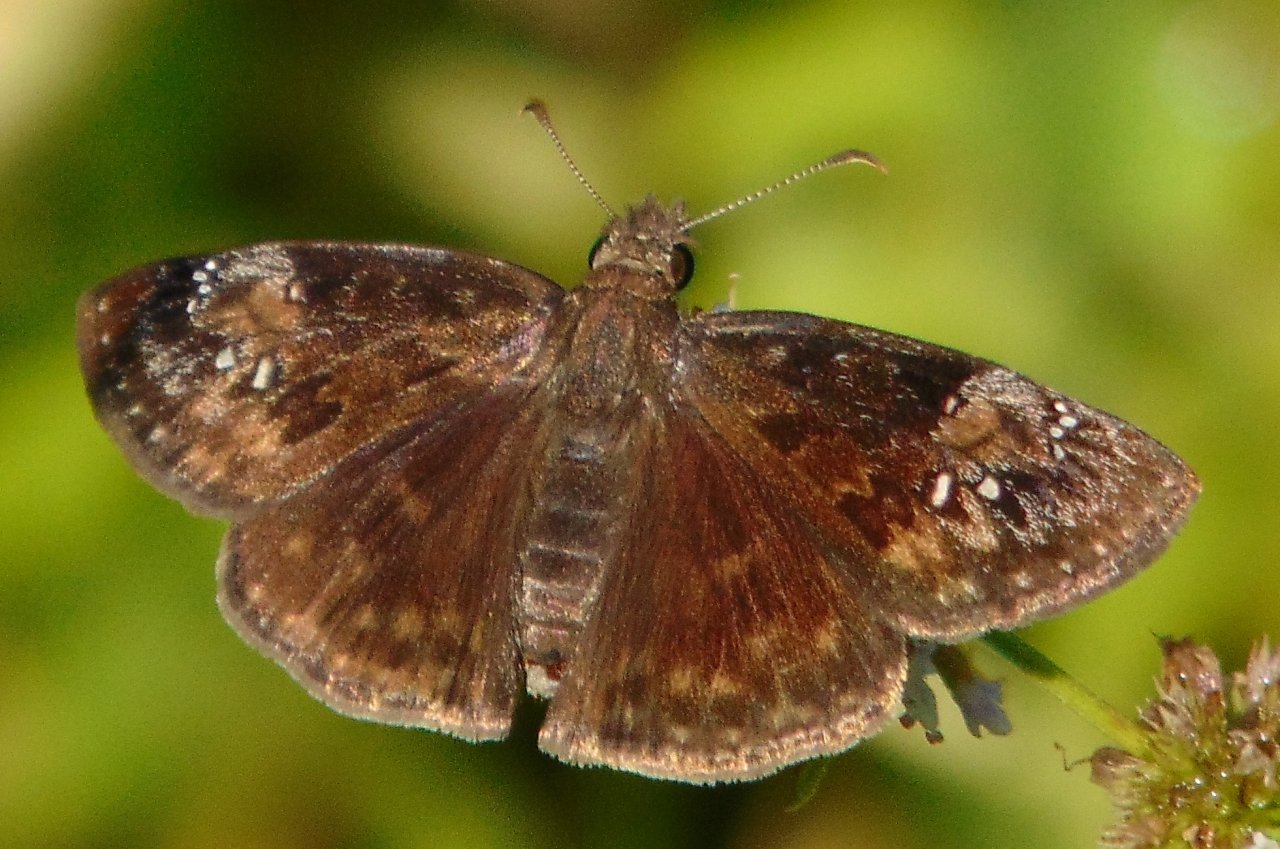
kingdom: Animalia
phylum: Arthropoda
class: Insecta
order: Lepidoptera
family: Hesperiidae
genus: Gesta
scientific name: Gesta
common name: Wild Indigo Duskywing
